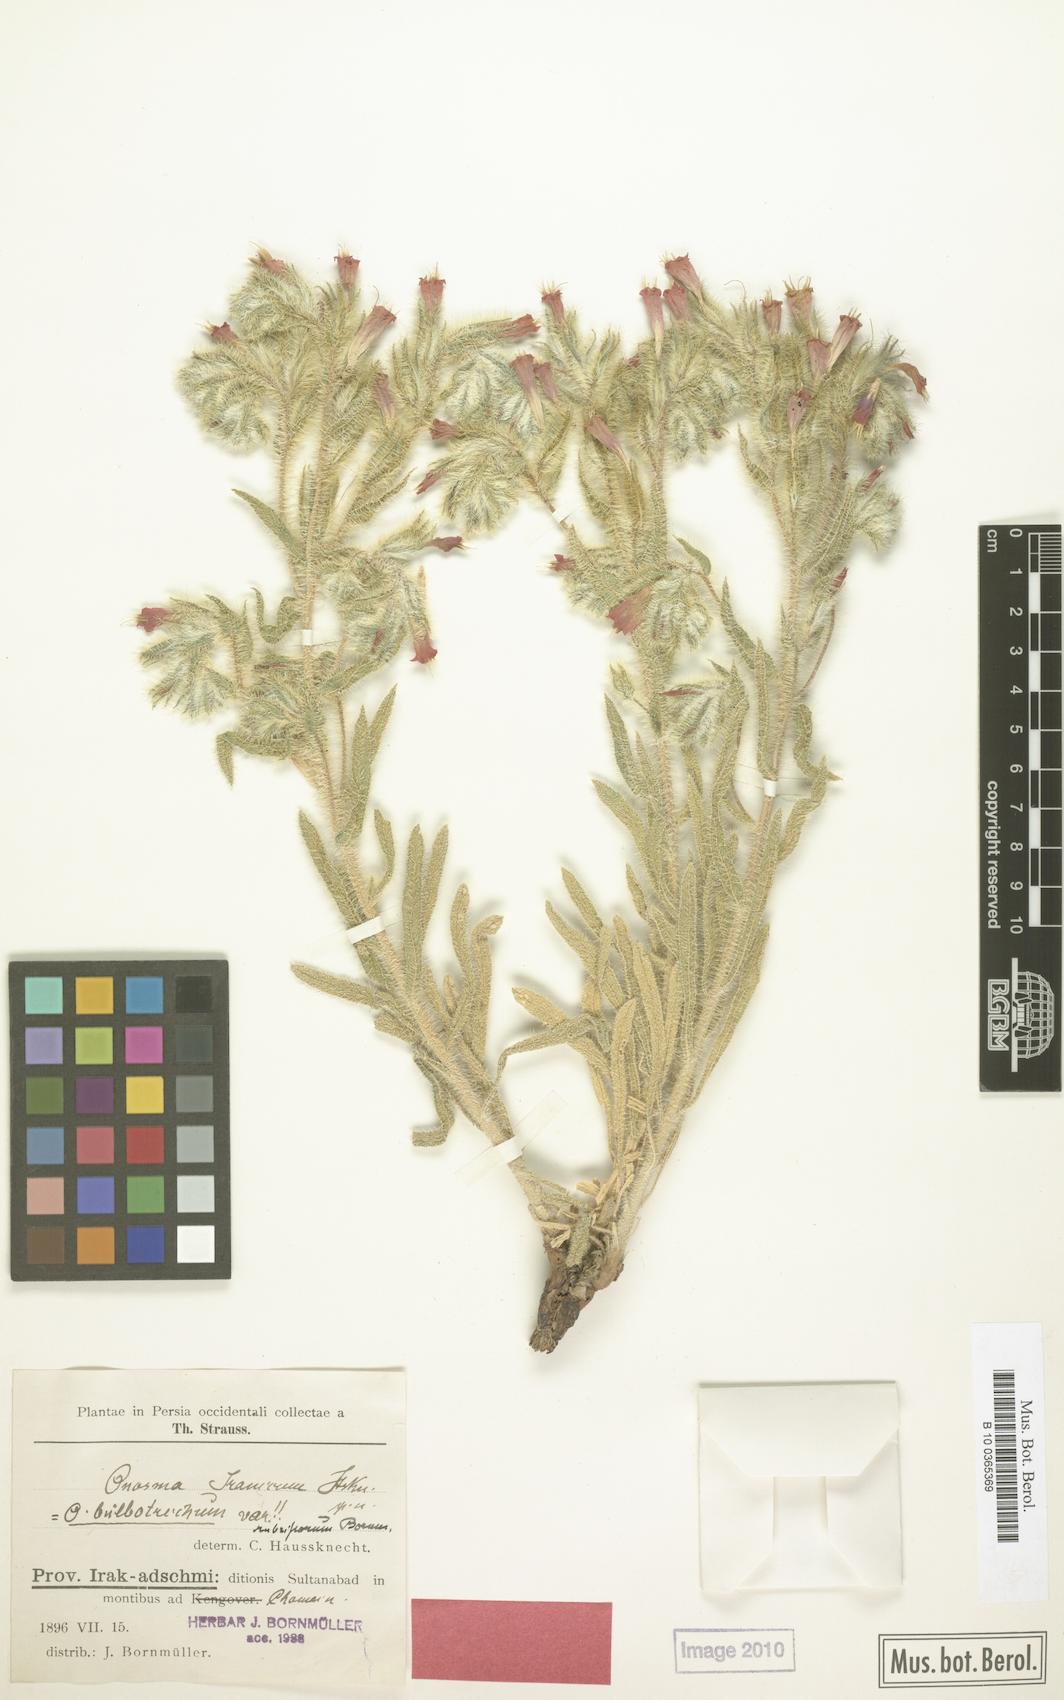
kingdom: Plantae
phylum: Tracheophyta
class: Magnoliopsida
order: Boraginales
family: Boraginaceae
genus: Onosma
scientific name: Onosma straussii
